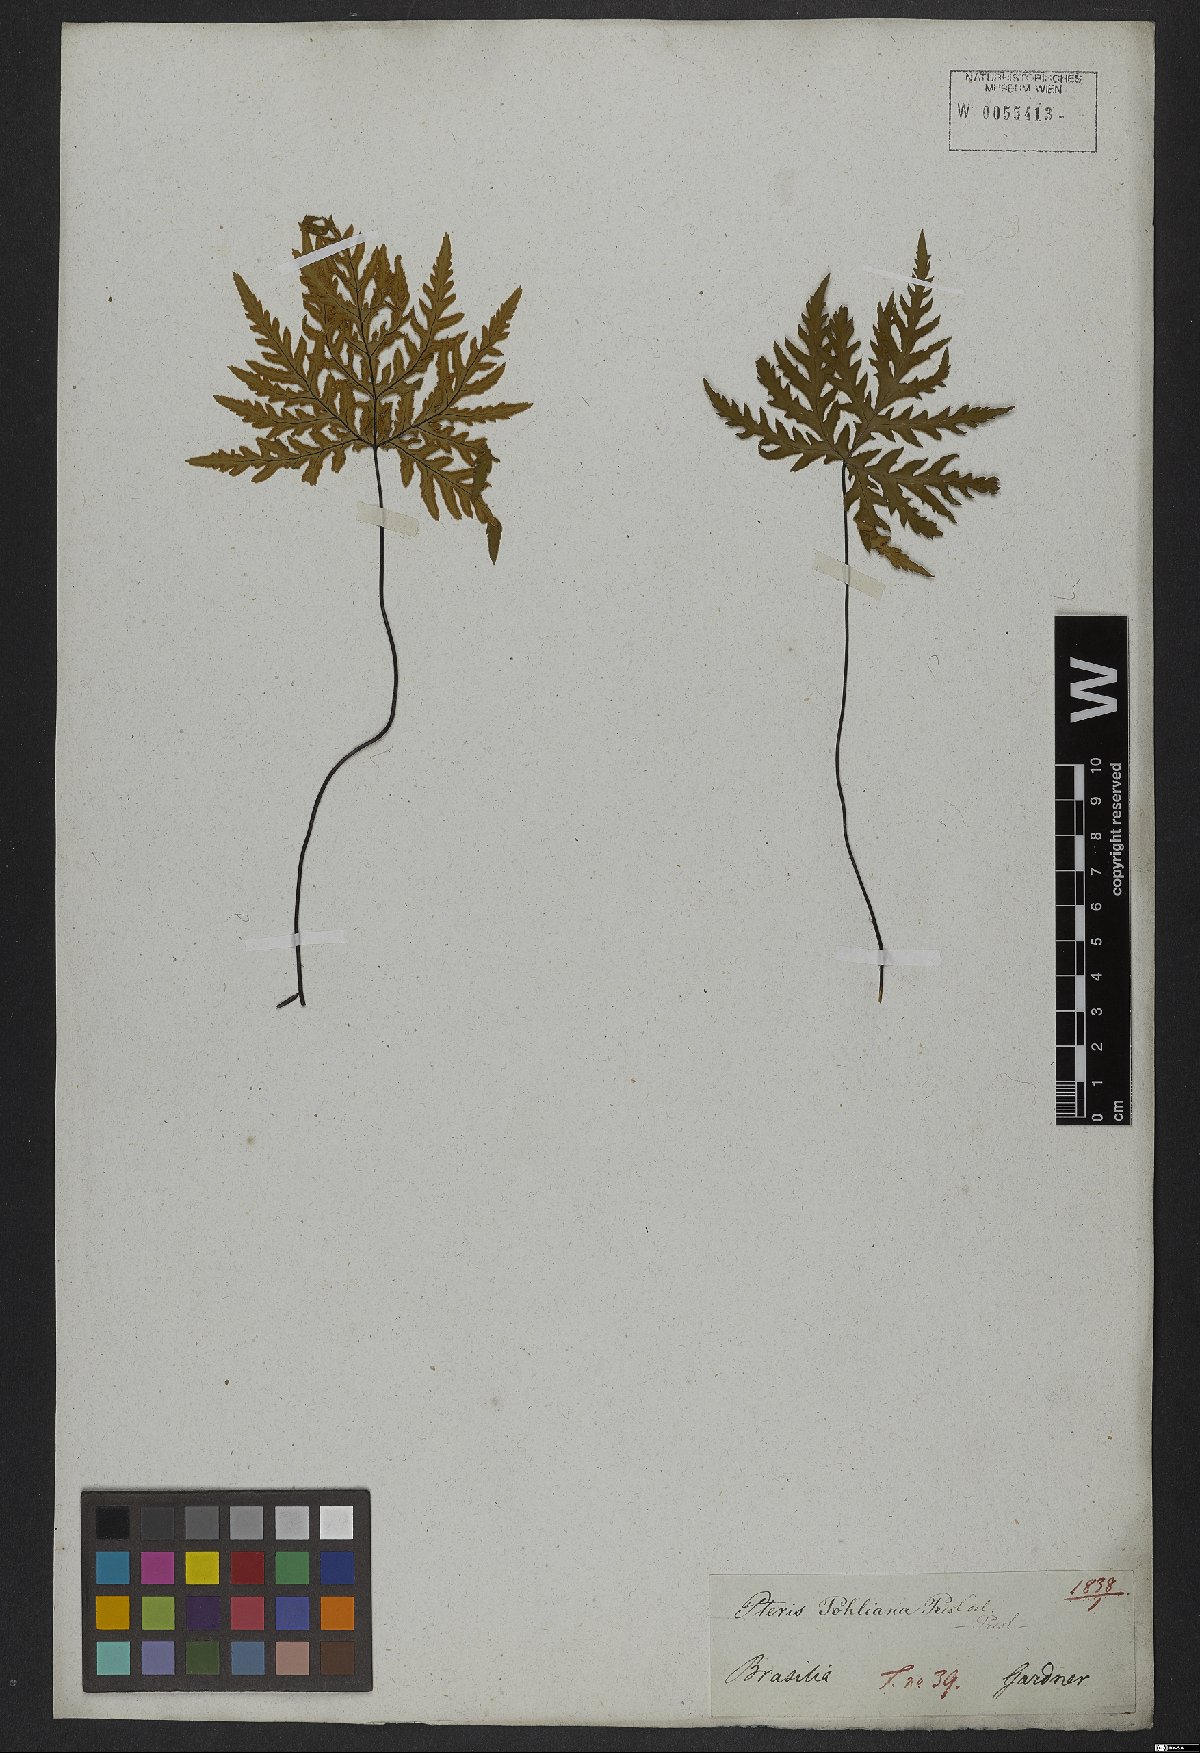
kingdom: Plantae
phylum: Tracheophyta
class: Polypodiopsida
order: Polypodiales
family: Pteridaceae
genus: Doryopteris
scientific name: Doryopteris concolor
